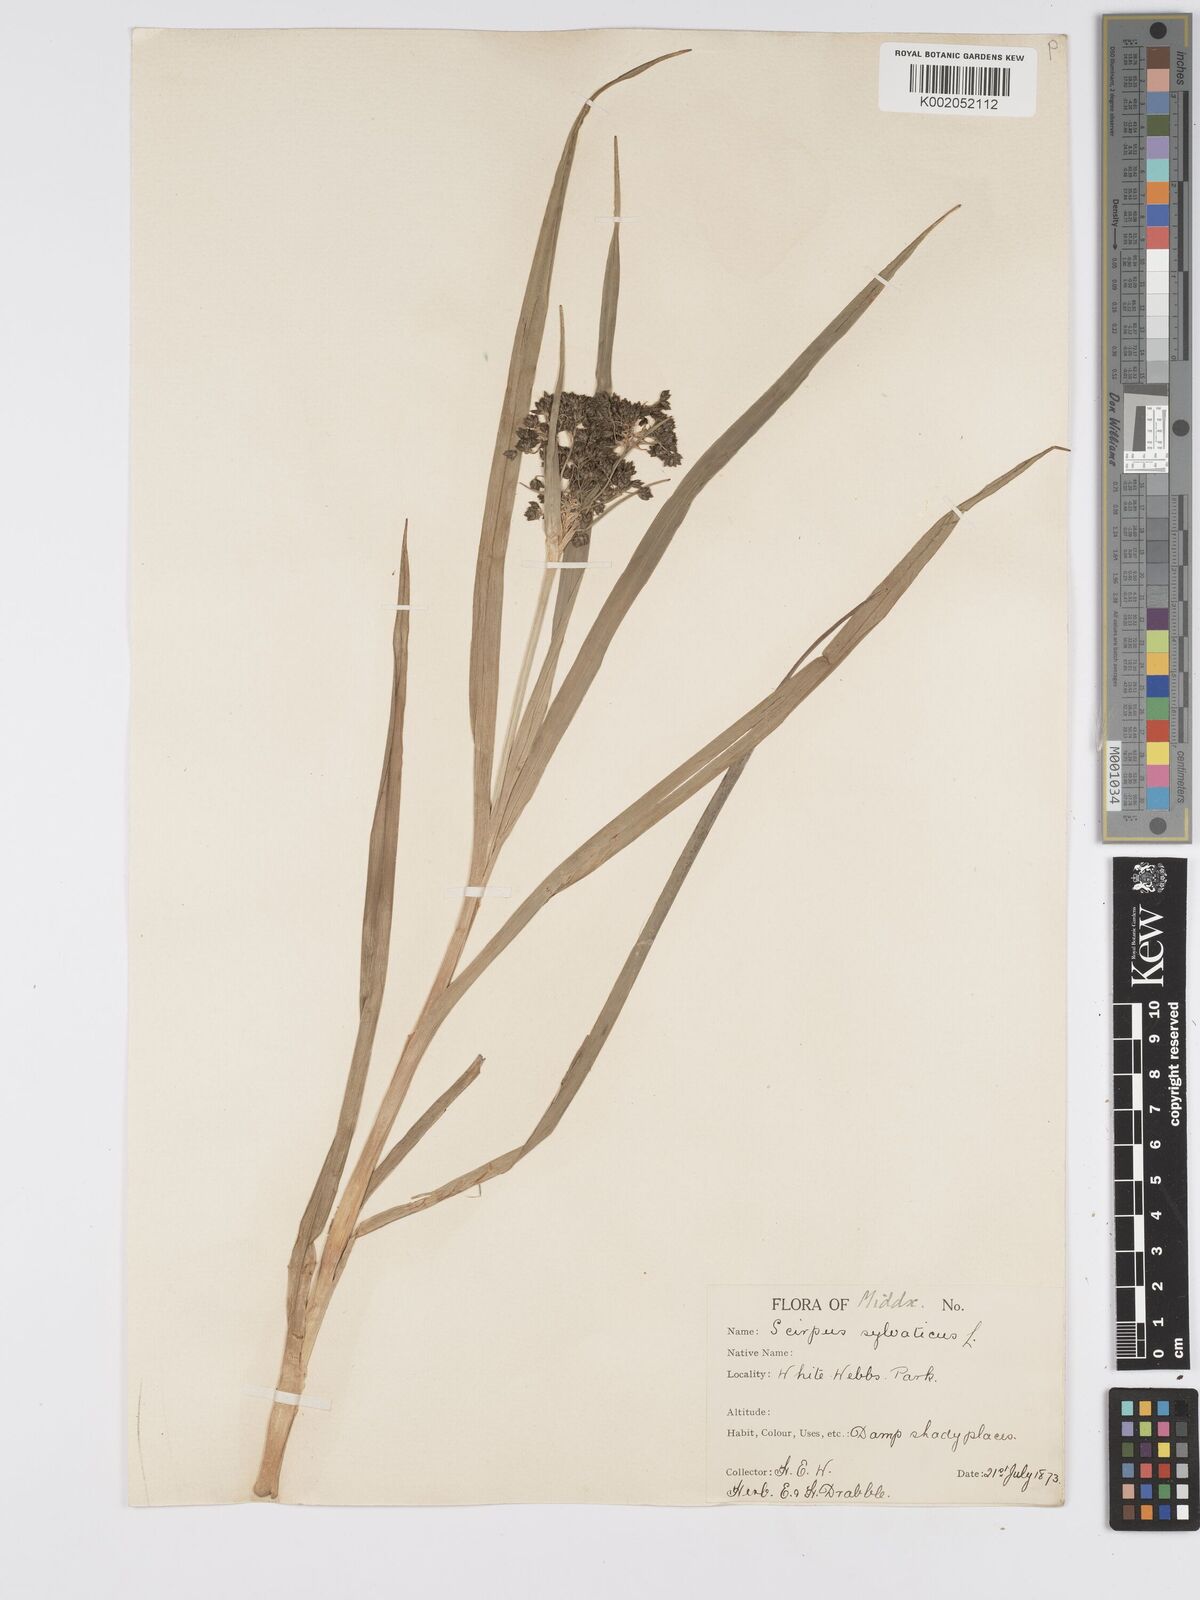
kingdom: Plantae
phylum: Tracheophyta
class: Liliopsida
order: Poales
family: Cyperaceae
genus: Scirpus
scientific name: Scirpus sylvaticus
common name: Wood club-rush
